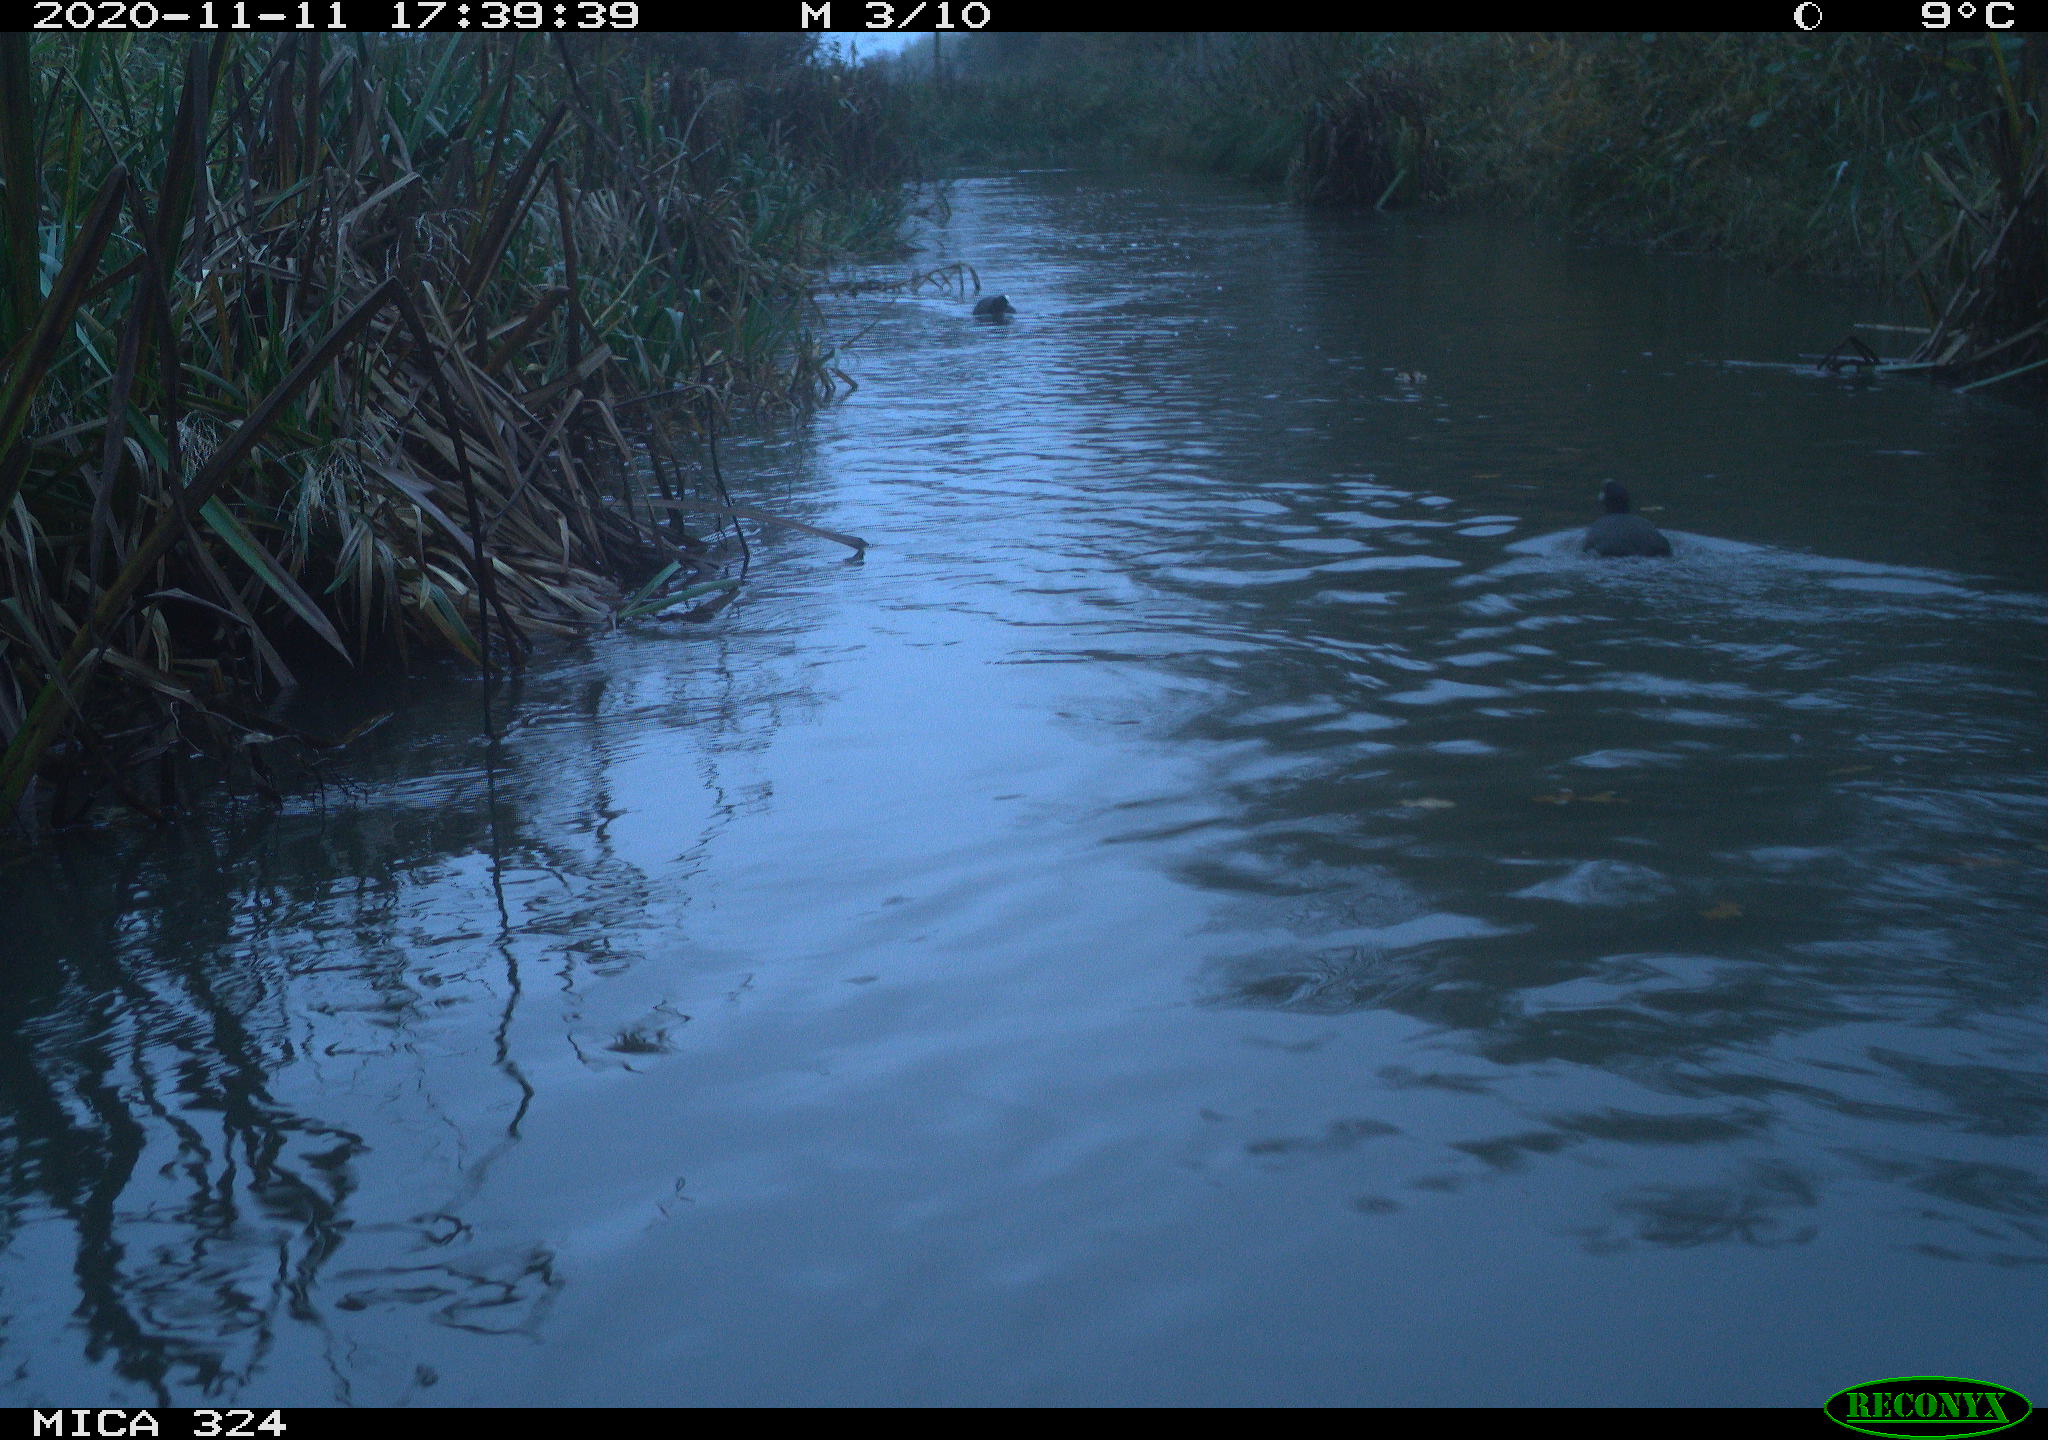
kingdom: Animalia
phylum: Chordata
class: Aves
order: Gruiformes
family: Rallidae
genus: Fulica
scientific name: Fulica atra
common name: Eurasian coot
